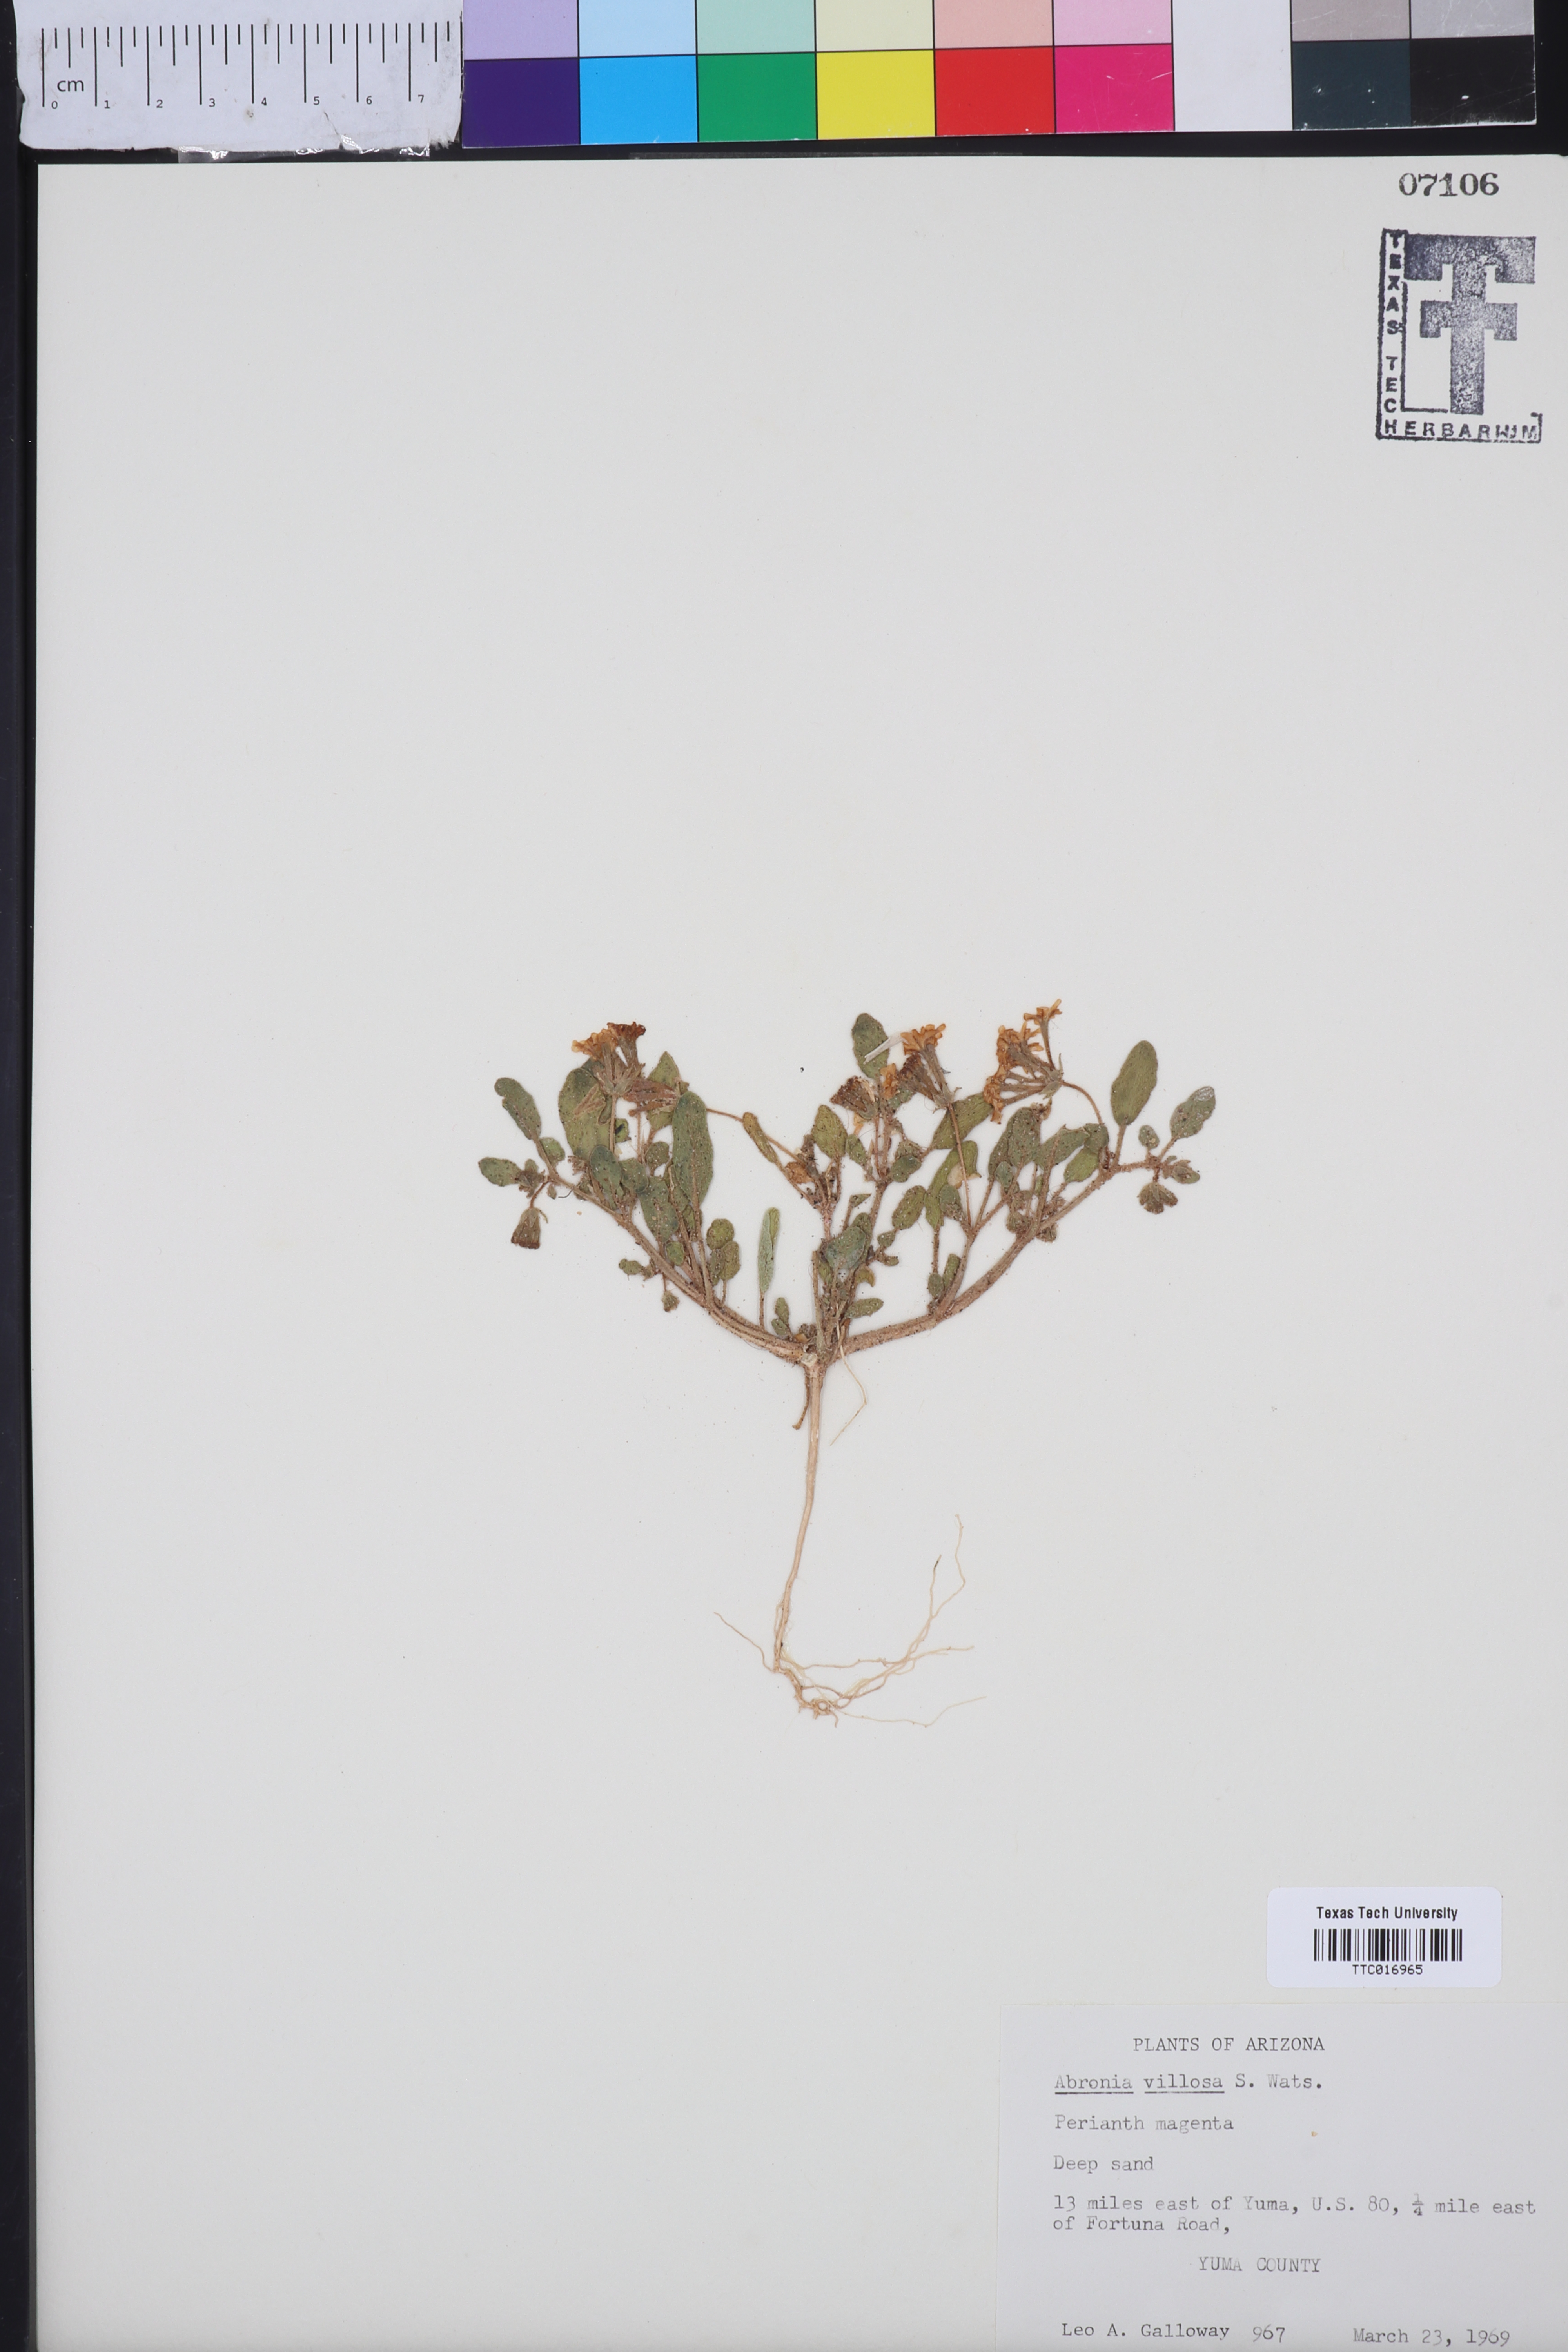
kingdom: Plantae
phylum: Tracheophyta
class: Magnoliopsida
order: Caryophyllales
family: Nyctaginaceae
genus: Abronia
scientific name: Abronia villosa
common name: Desert sand-verbena
